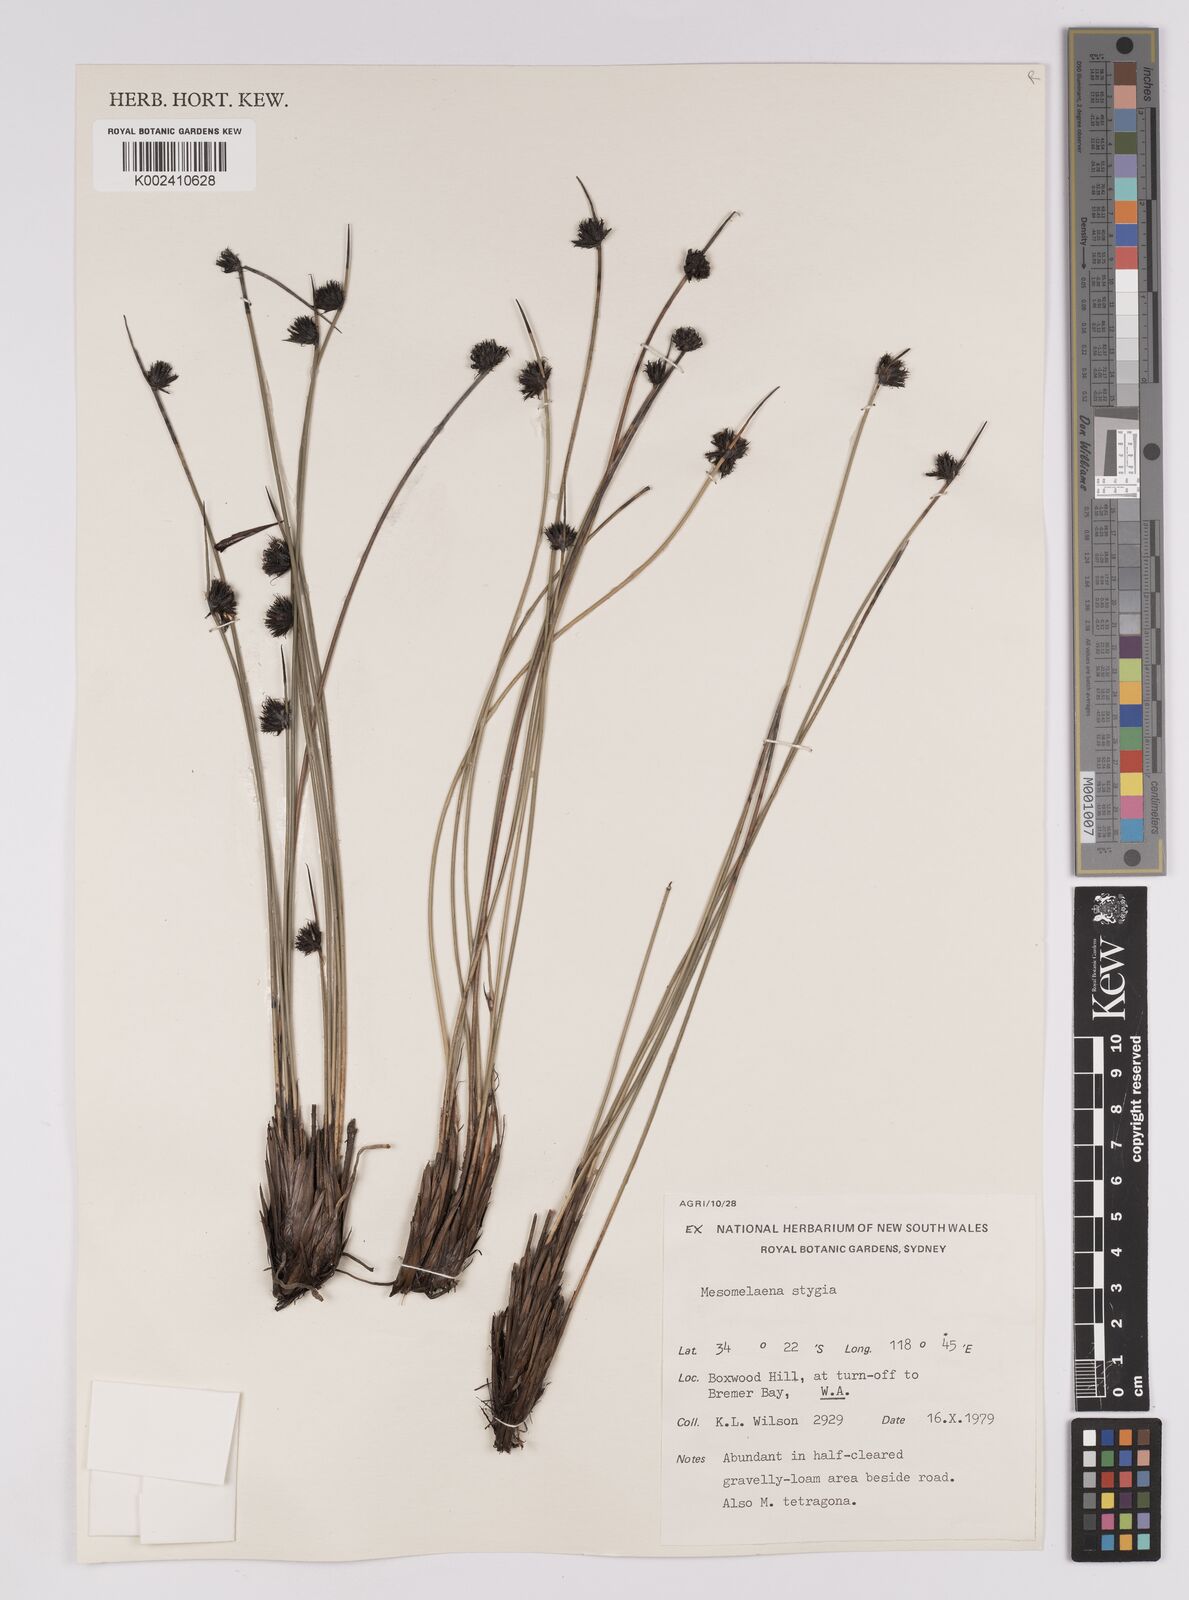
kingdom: Plantae
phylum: Tracheophyta
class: Liliopsida
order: Poales
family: Cyperaceae
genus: Mesomelaena
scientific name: Mesomelaena stygia
